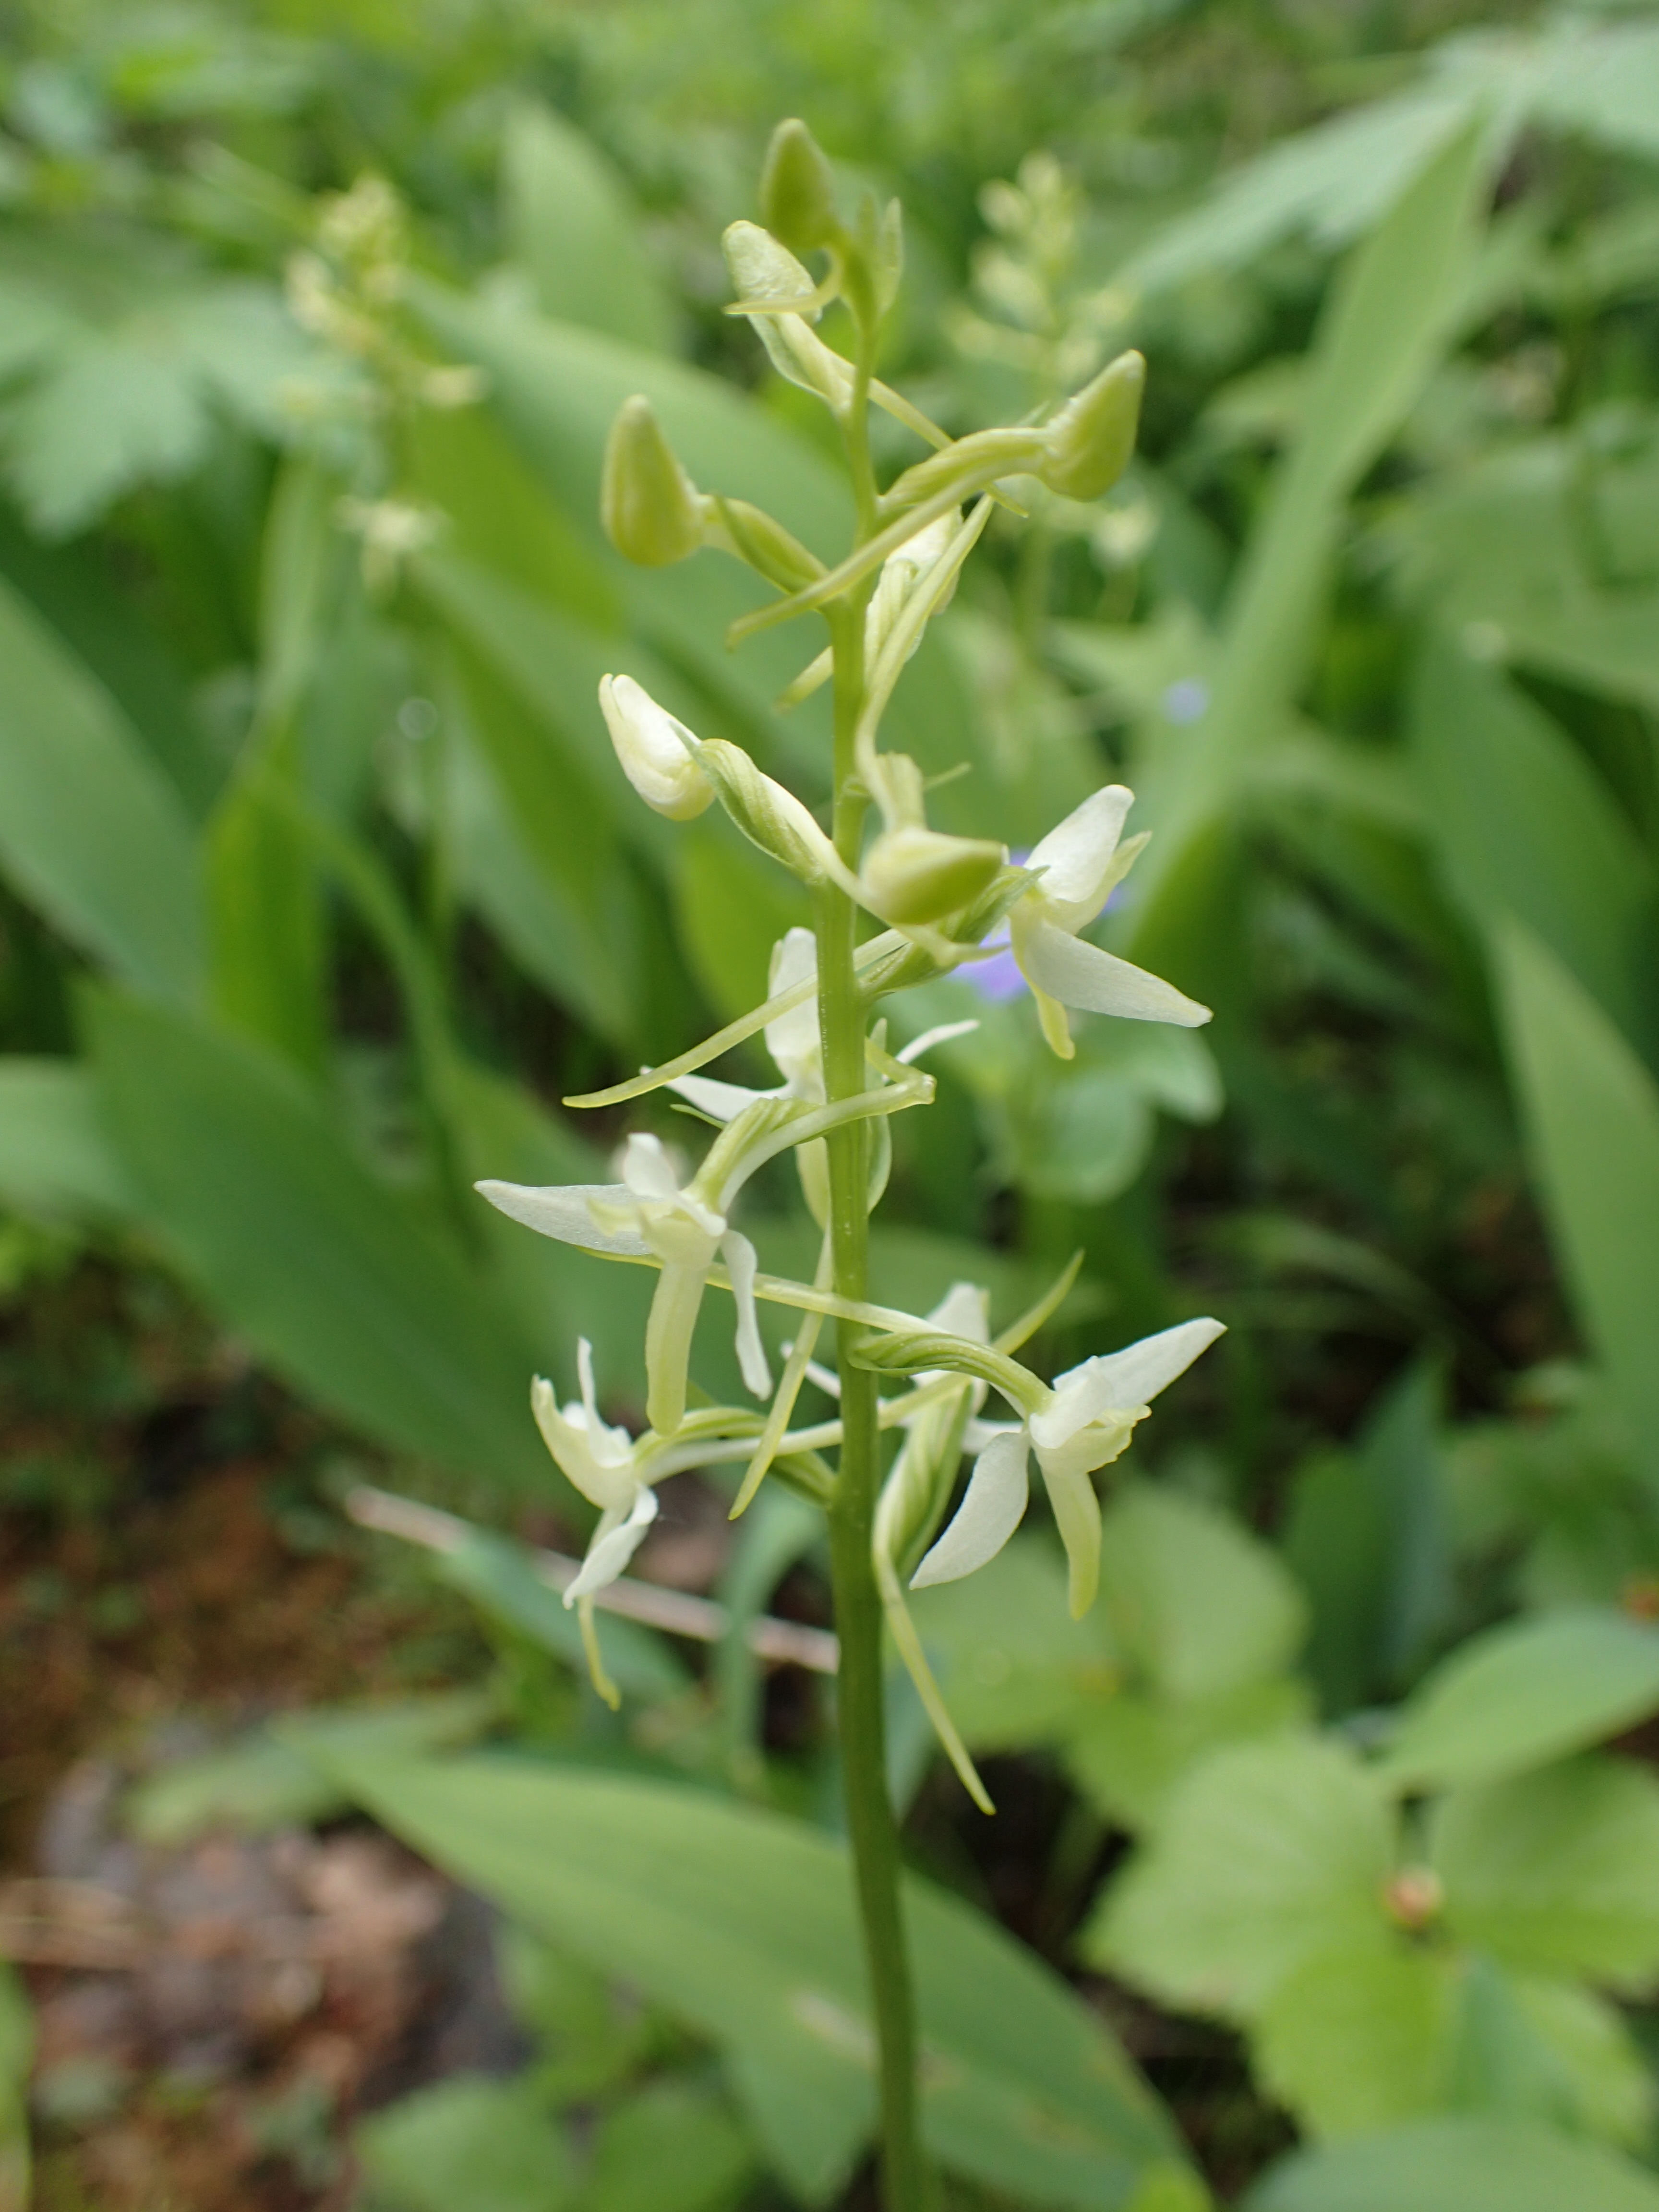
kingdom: Plantae
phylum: Tracheophyta
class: Liliopsida
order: Asparagales
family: Orchidaceae
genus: Platanthera
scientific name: Platanthera bifolia
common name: Lesser butterfly-orchid
